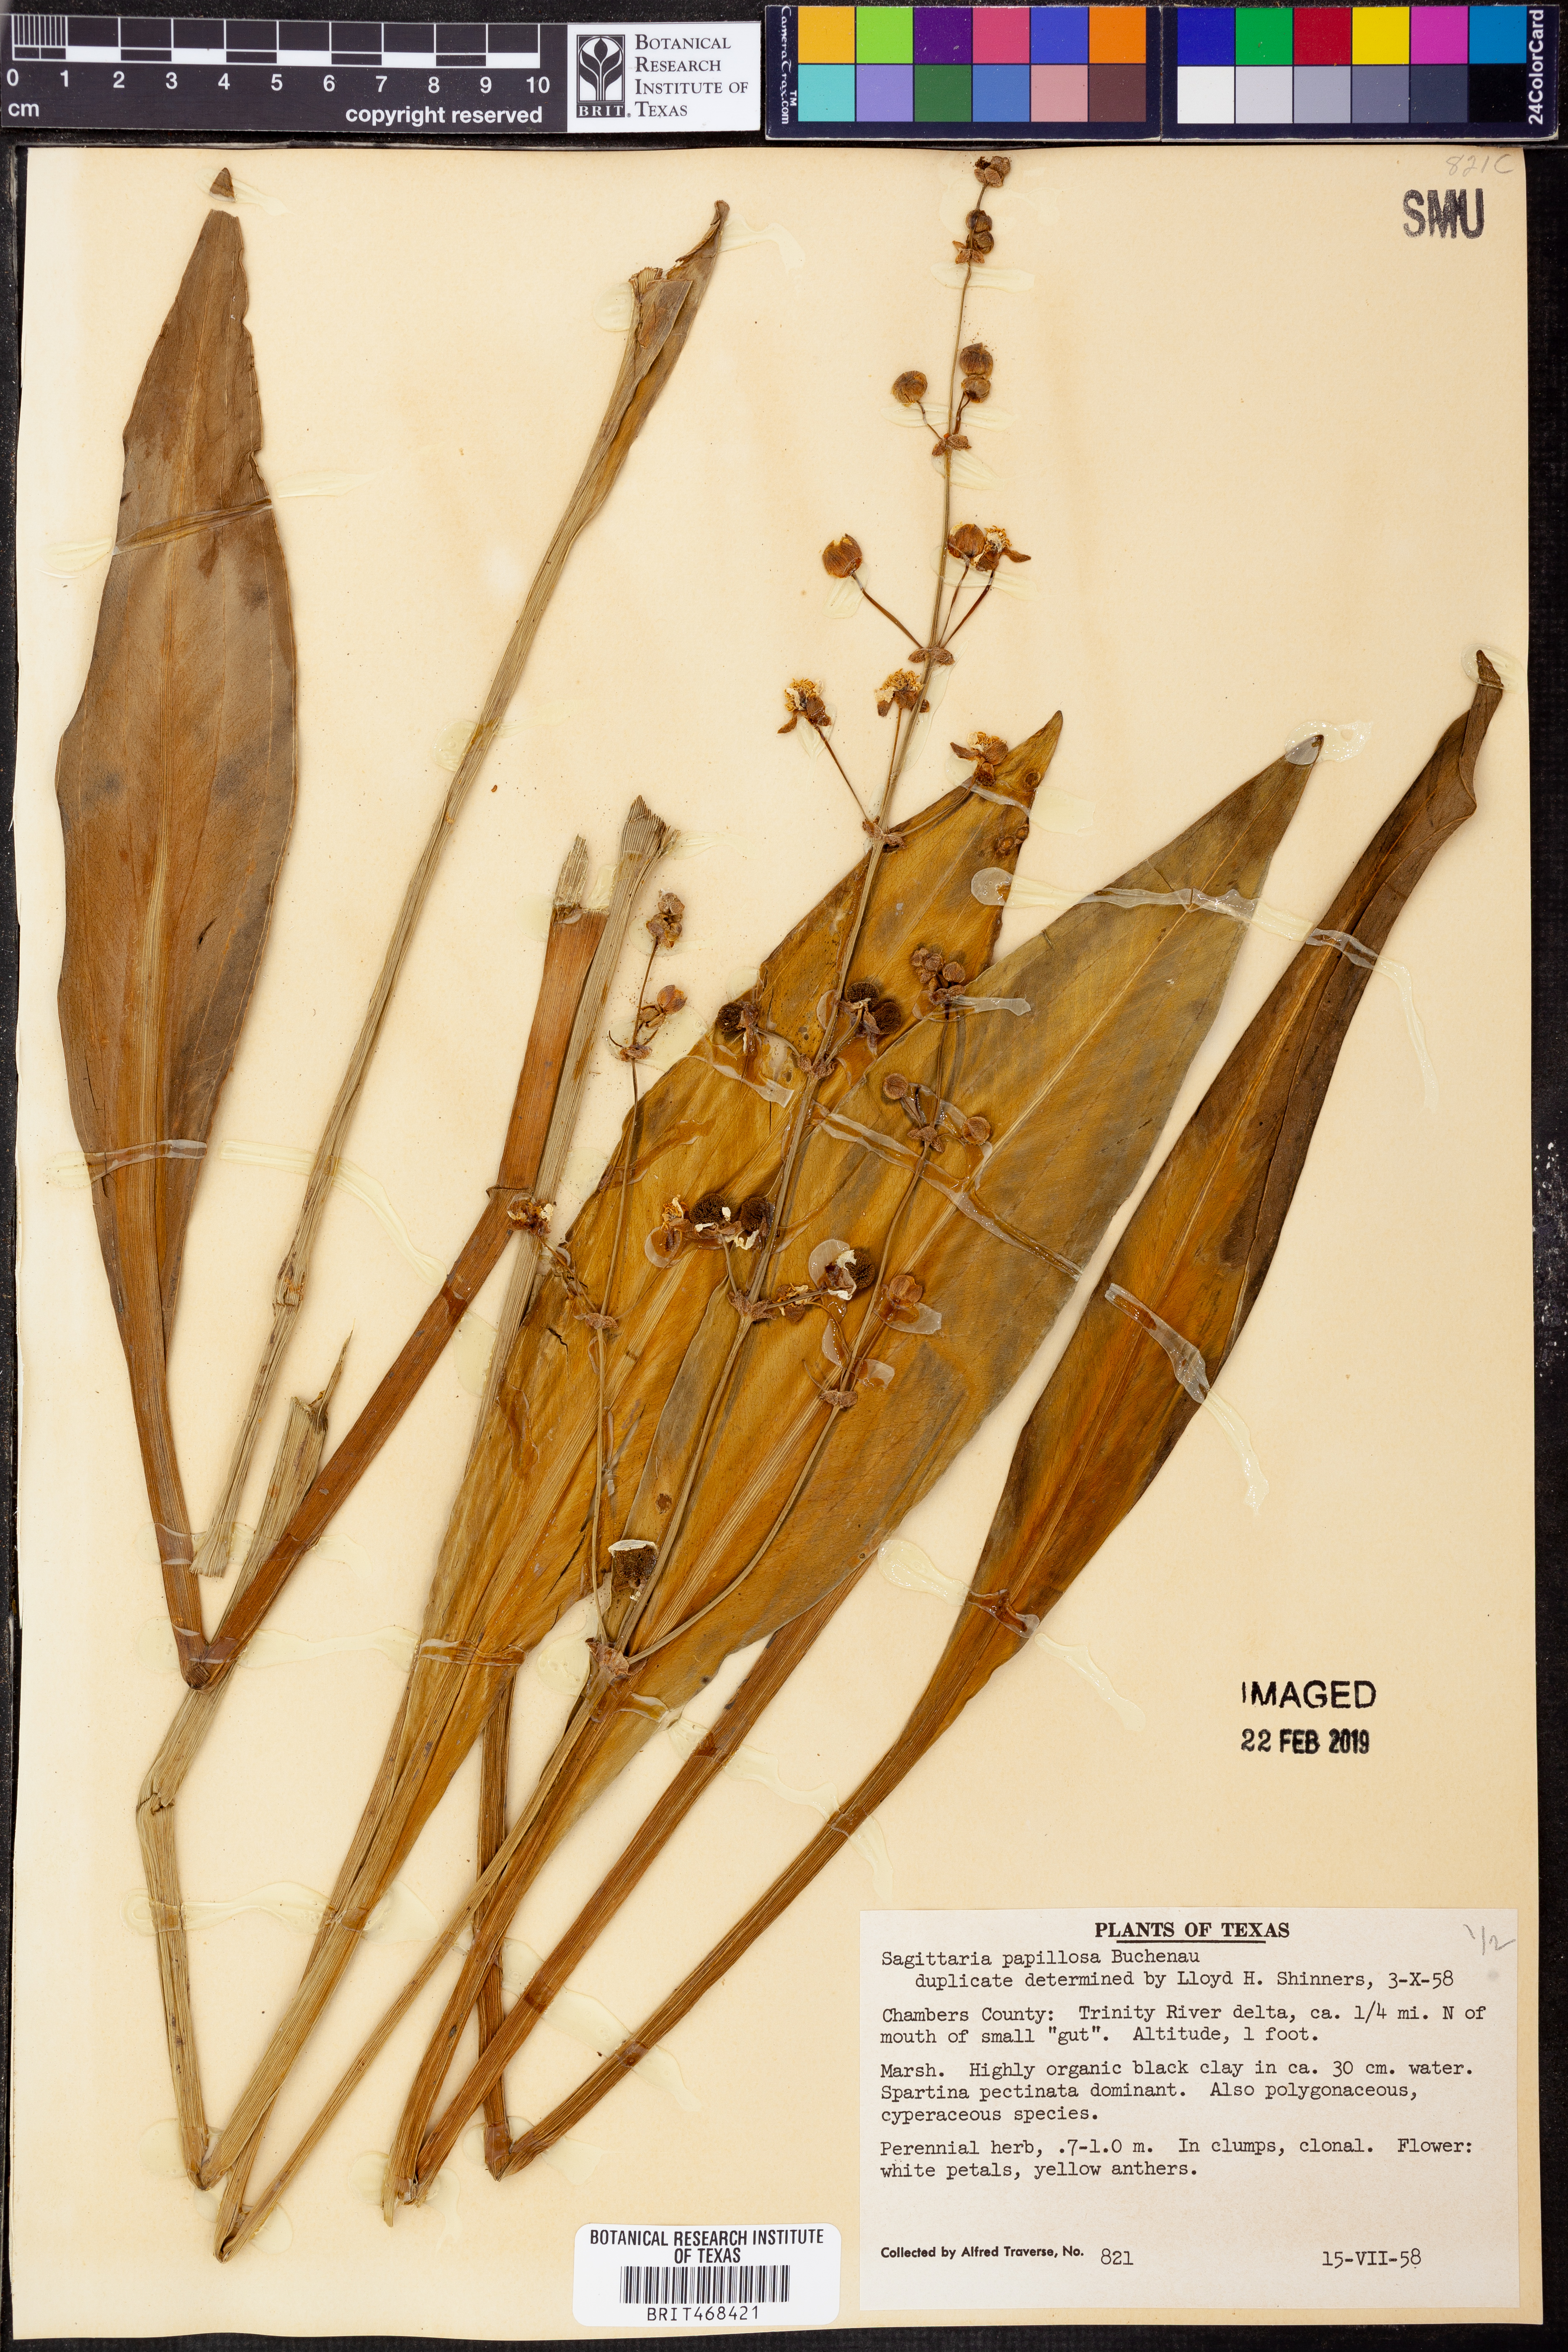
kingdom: Plantae
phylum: Tracheophyta
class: Liliopsida
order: Alismatales
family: Alismataceae
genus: Sagittaria
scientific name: Sagittaria lancifolia
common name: Lance-leaf arrowhead
